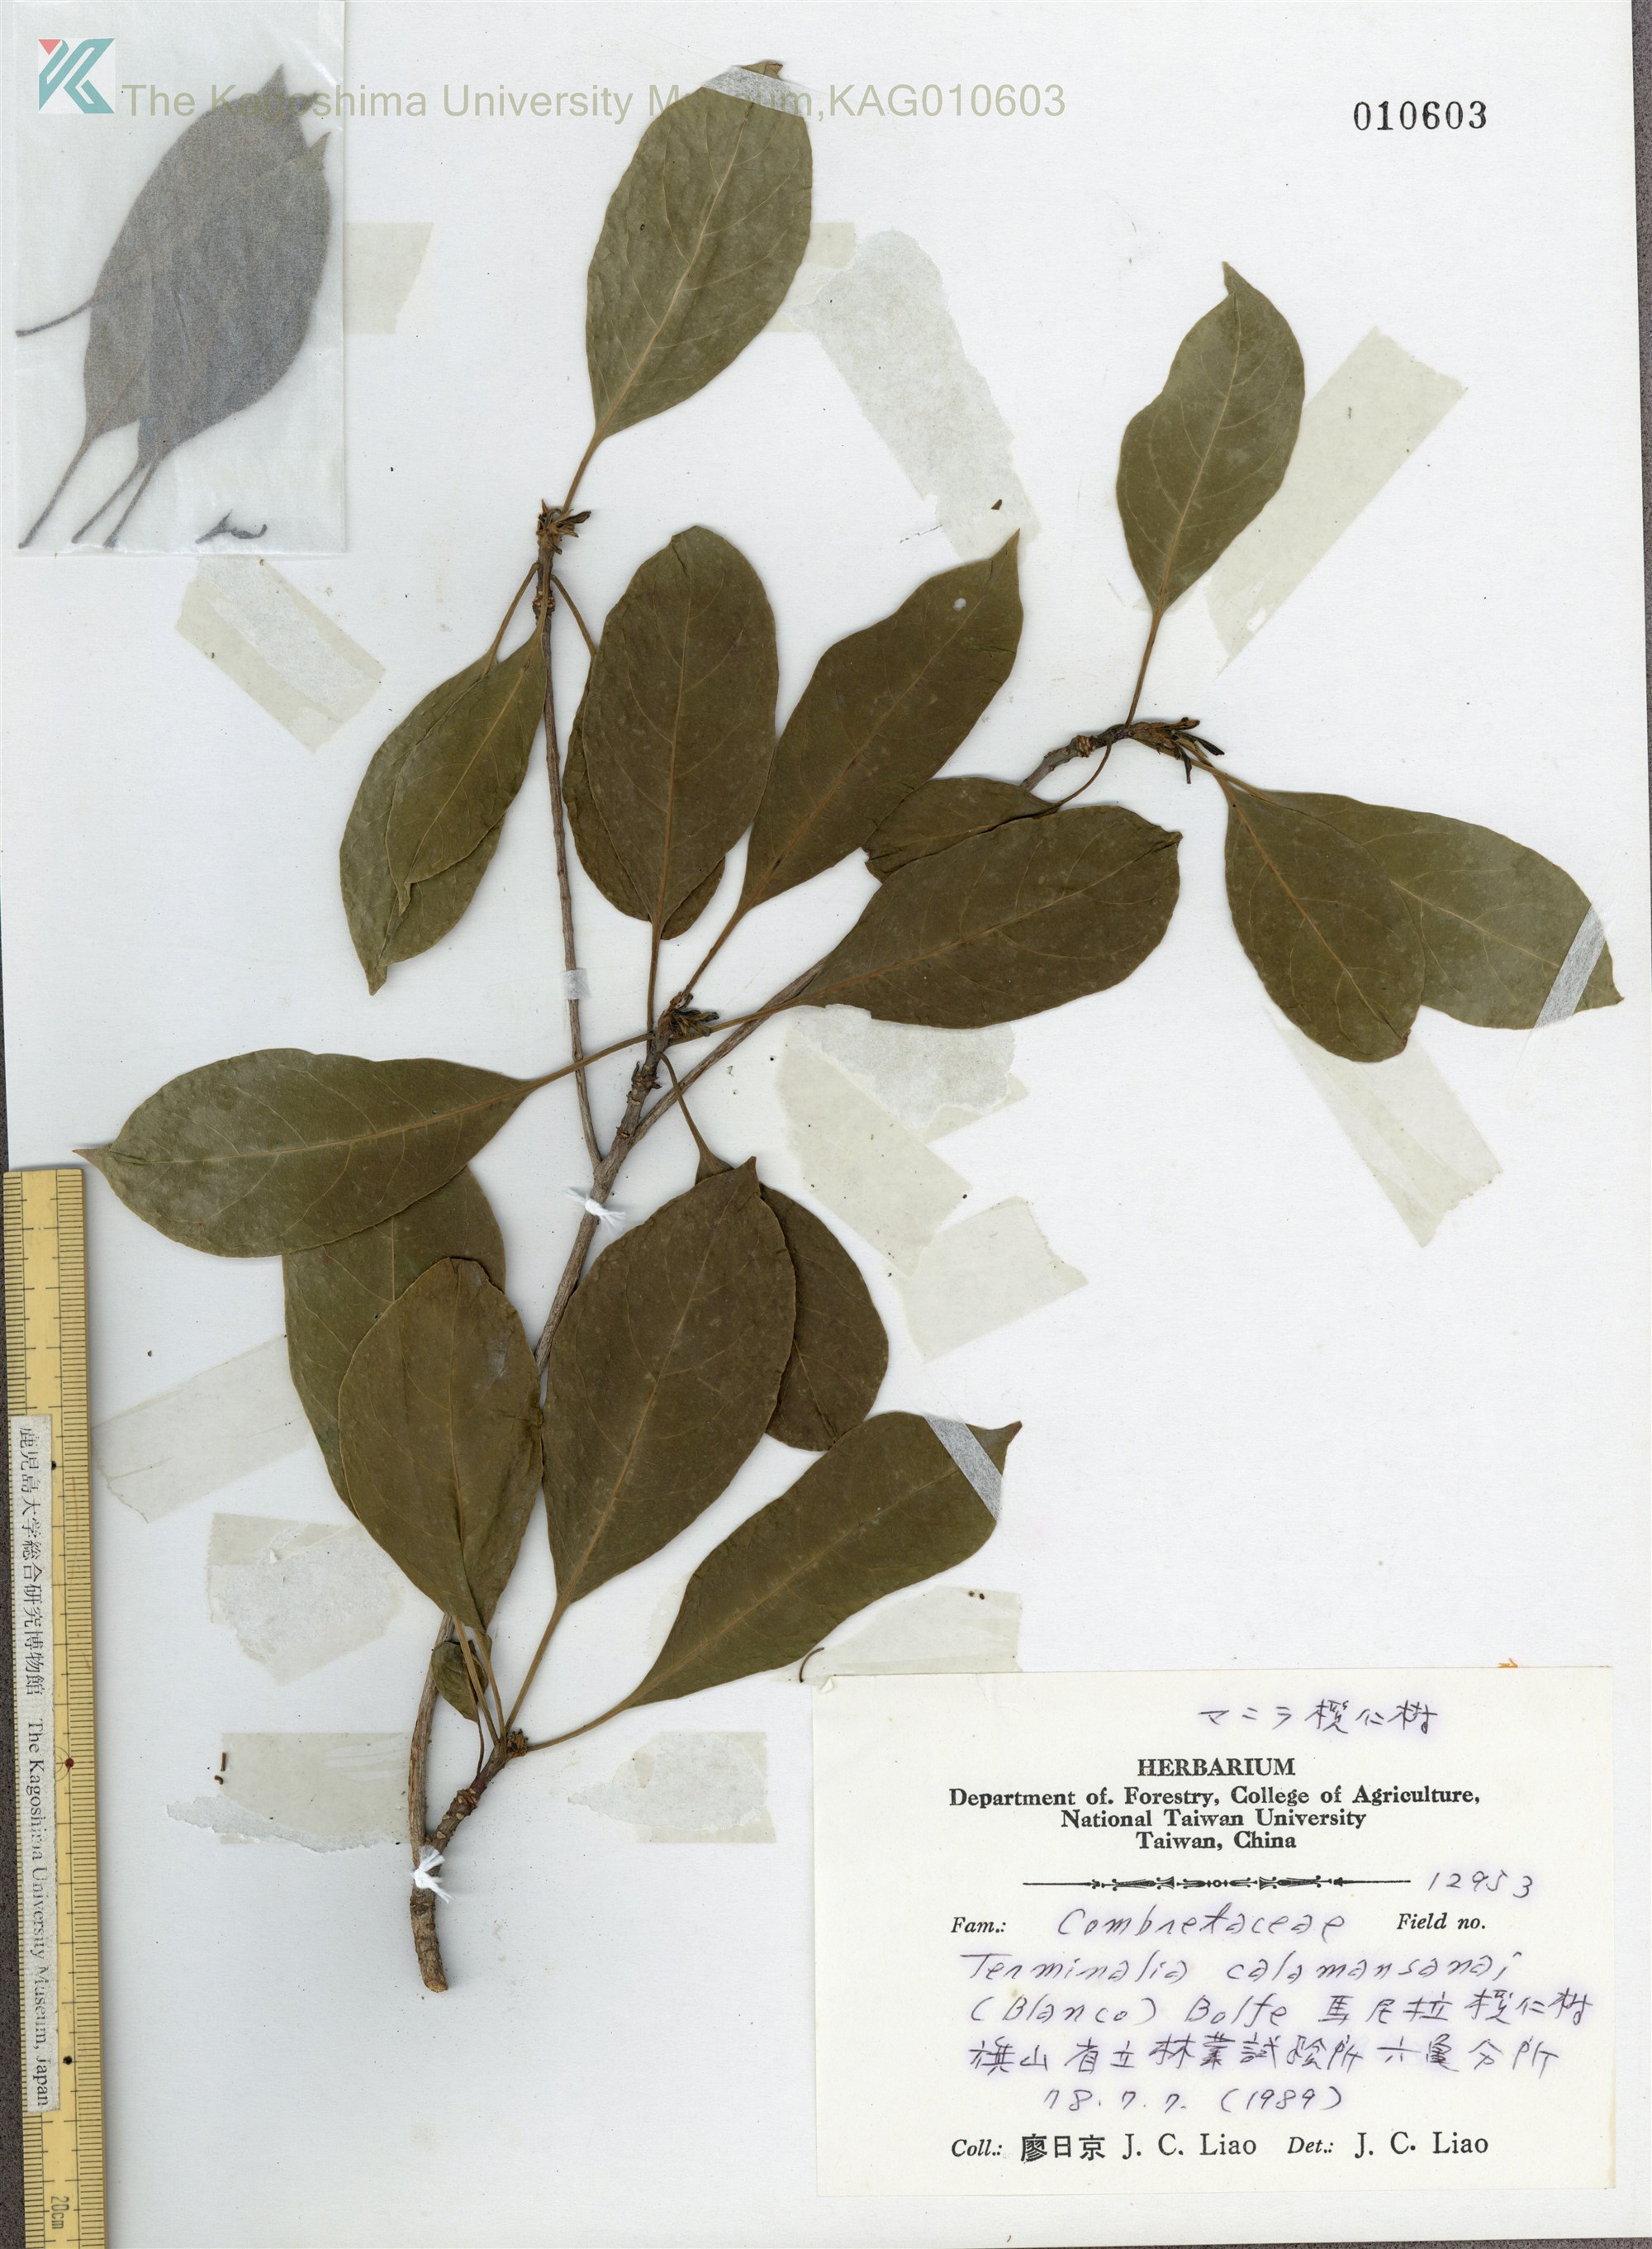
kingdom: Plantae
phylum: Tracheophyta
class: Magnoliopsida
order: Myrtales
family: Combretaceae
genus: Terminalia
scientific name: Terminalia calamansanai
